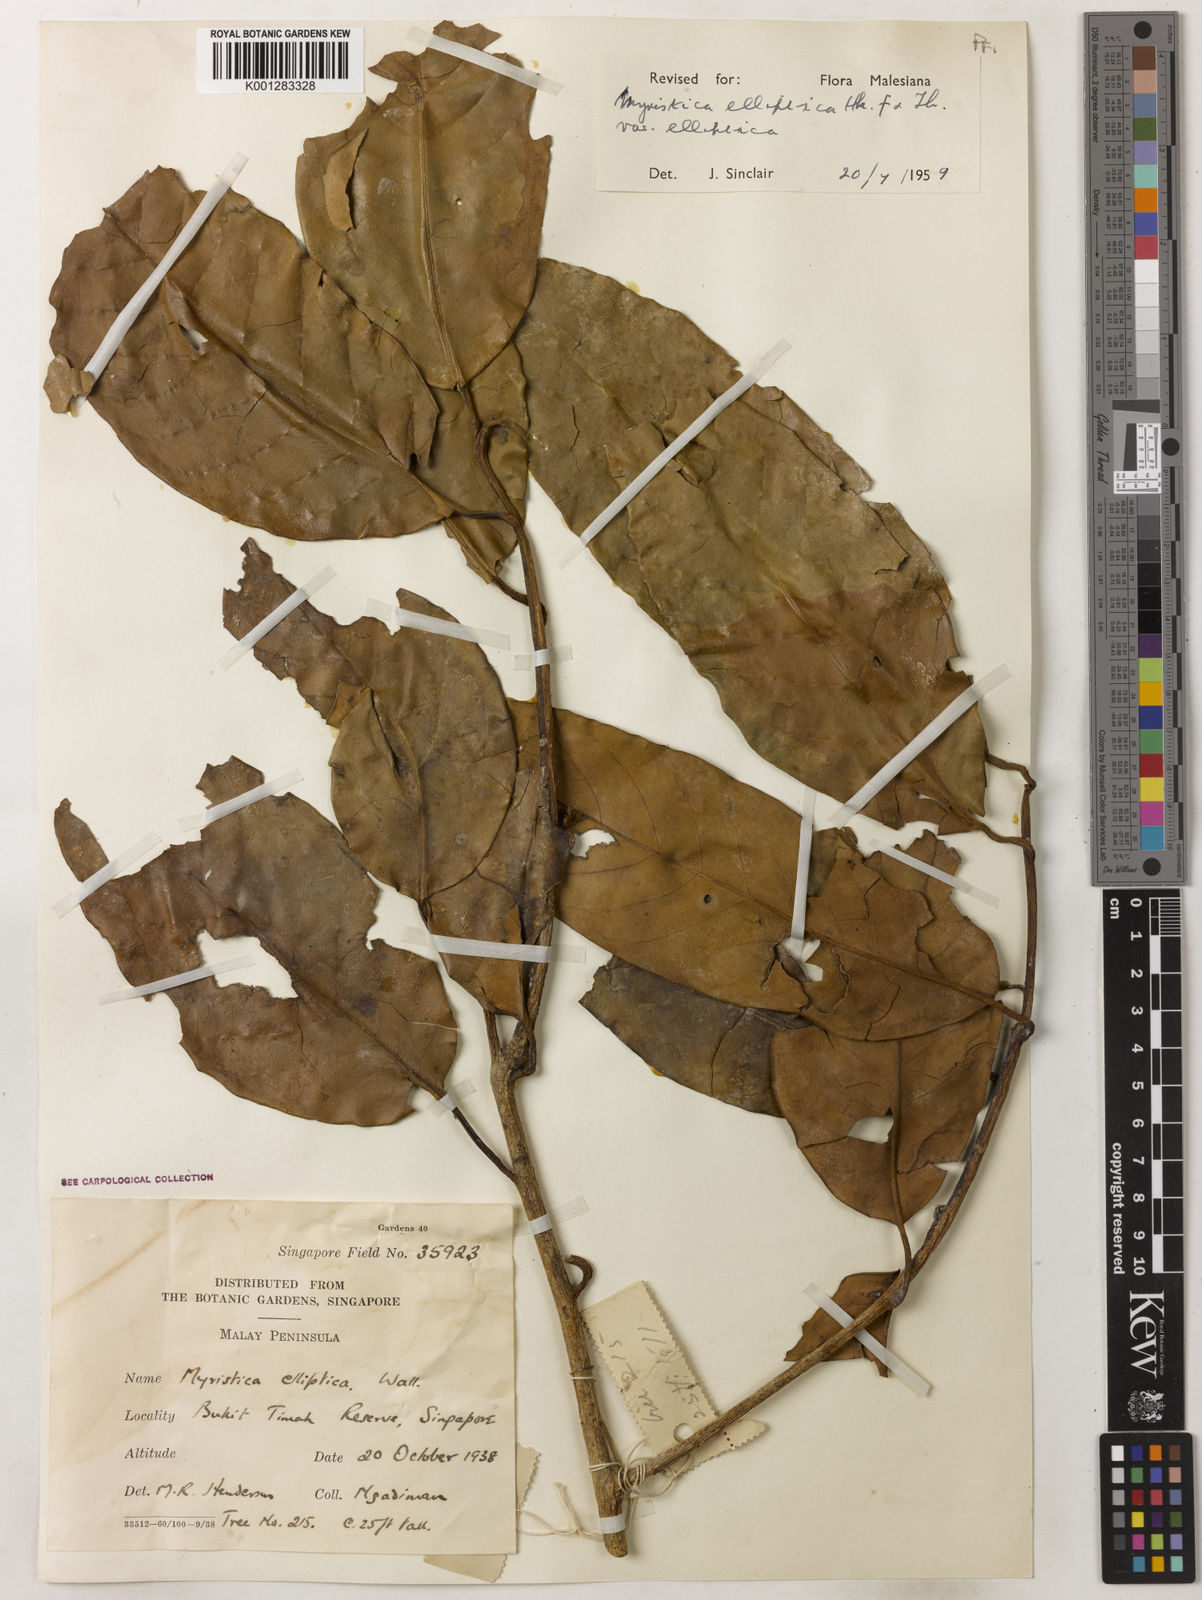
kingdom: Plantae
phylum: Tracheophyta
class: Magnoliopsida
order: Magnoliales
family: Myristicaceae
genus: Myristica
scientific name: Myristica elliptica
